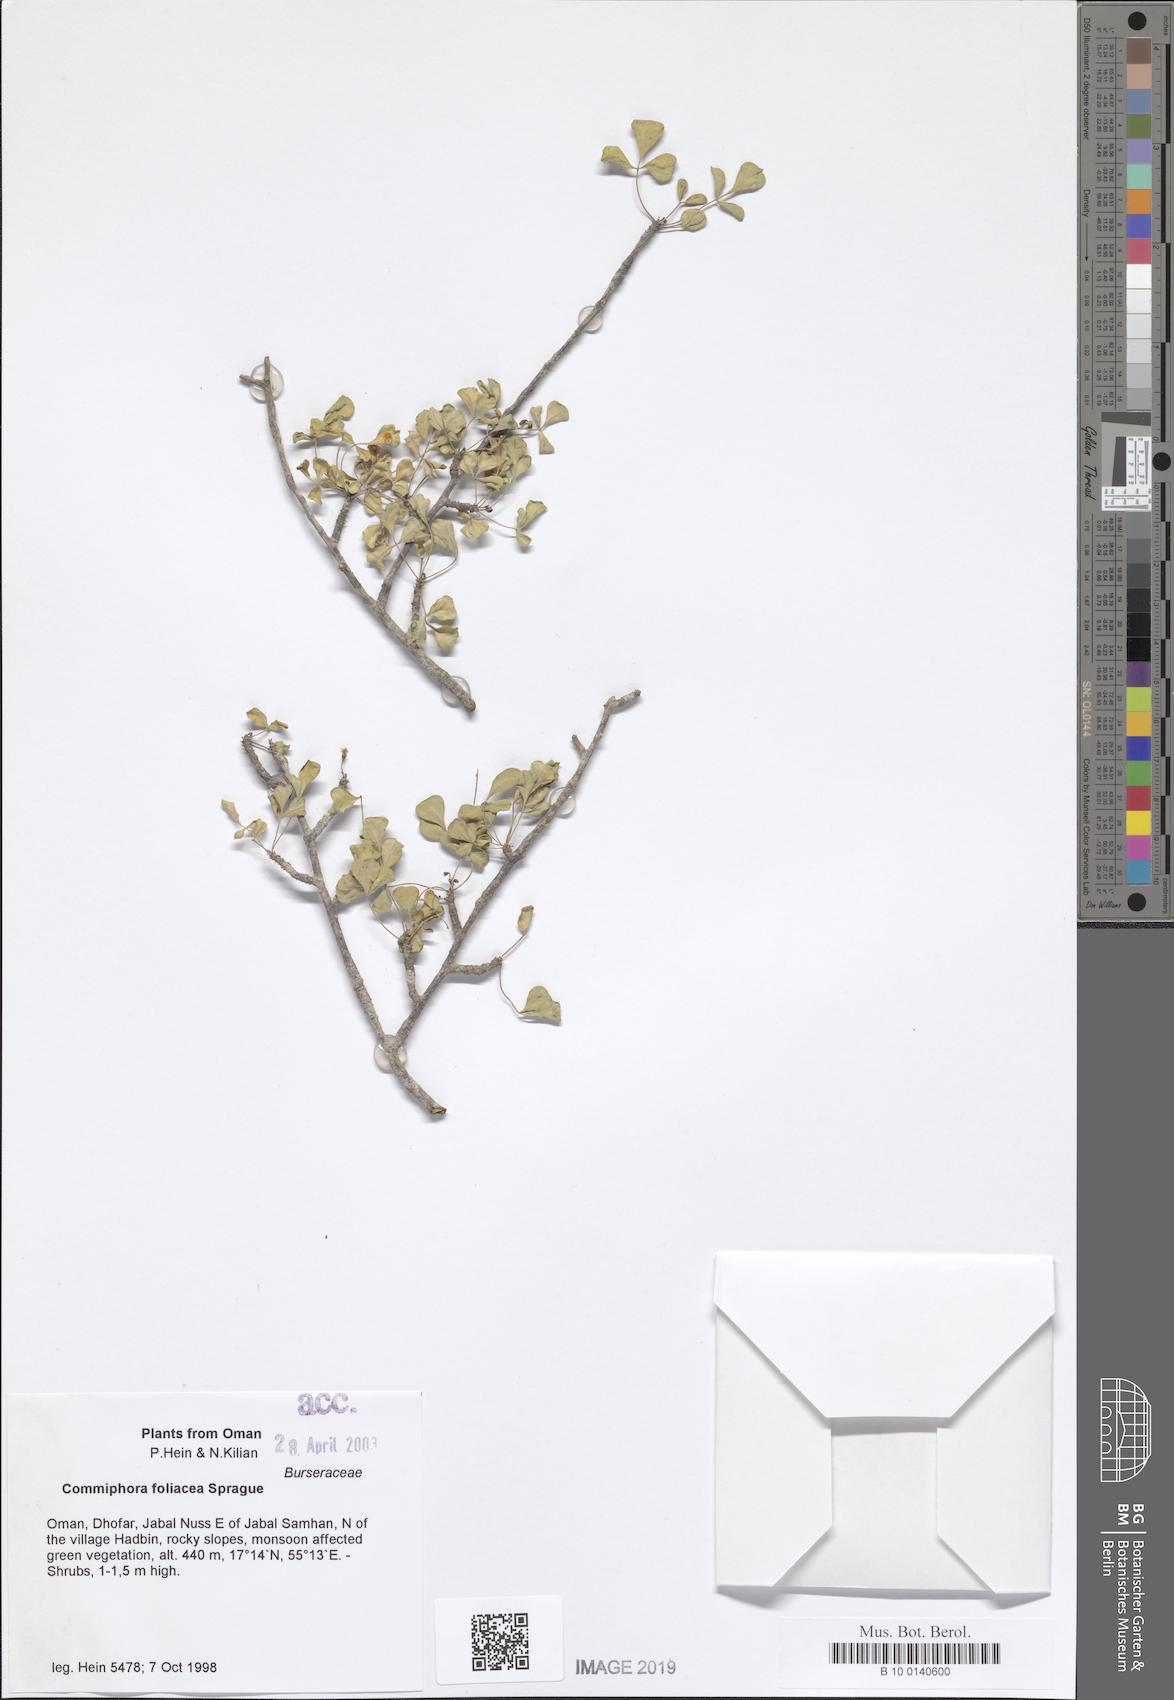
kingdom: Plantae
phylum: Tracheophyta
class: Magnoliopsida
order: Sapindales
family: Burseraceae
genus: Commiphora
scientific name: Commiphora foliacea
